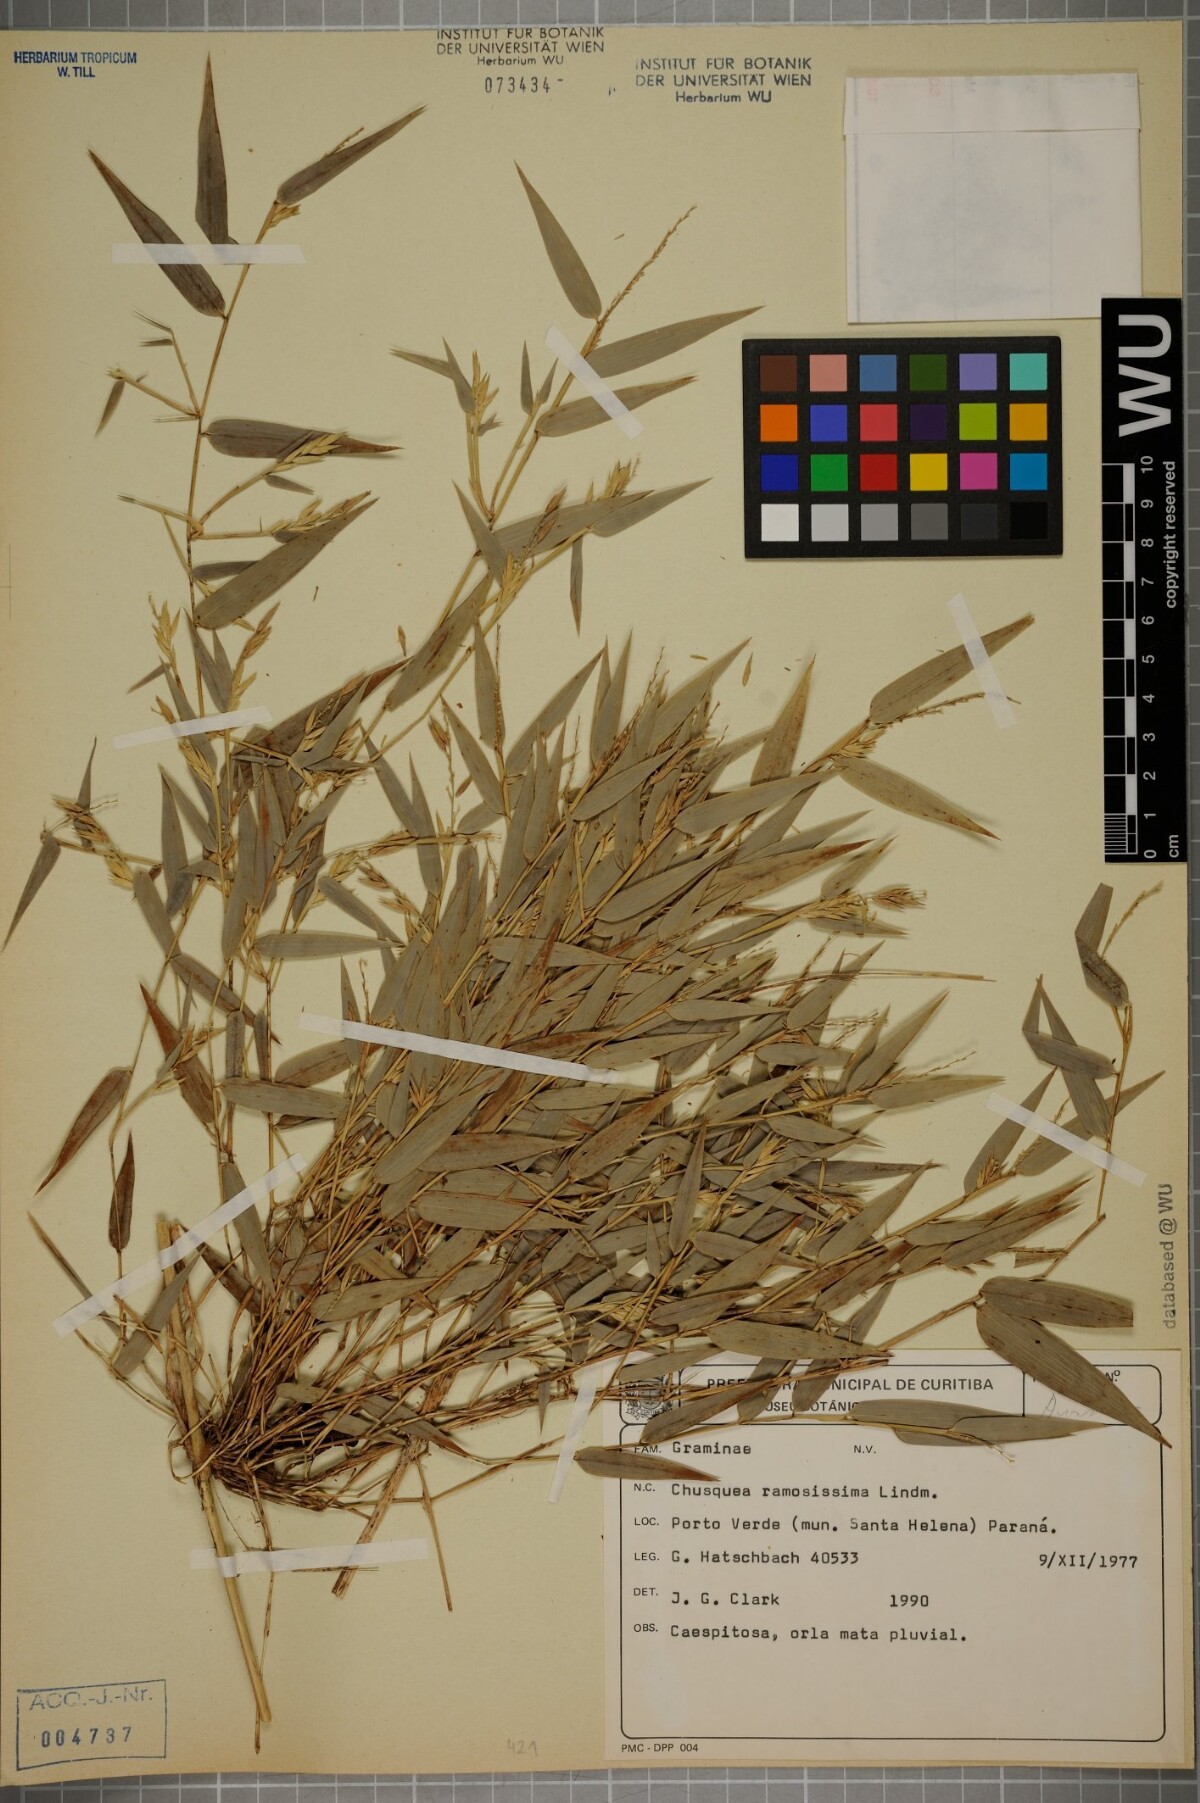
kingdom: Plantae
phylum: Tracheophyta
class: Liliopsida
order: Poales
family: Poaceae
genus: Chusquea
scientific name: Chusquea ramosissima
